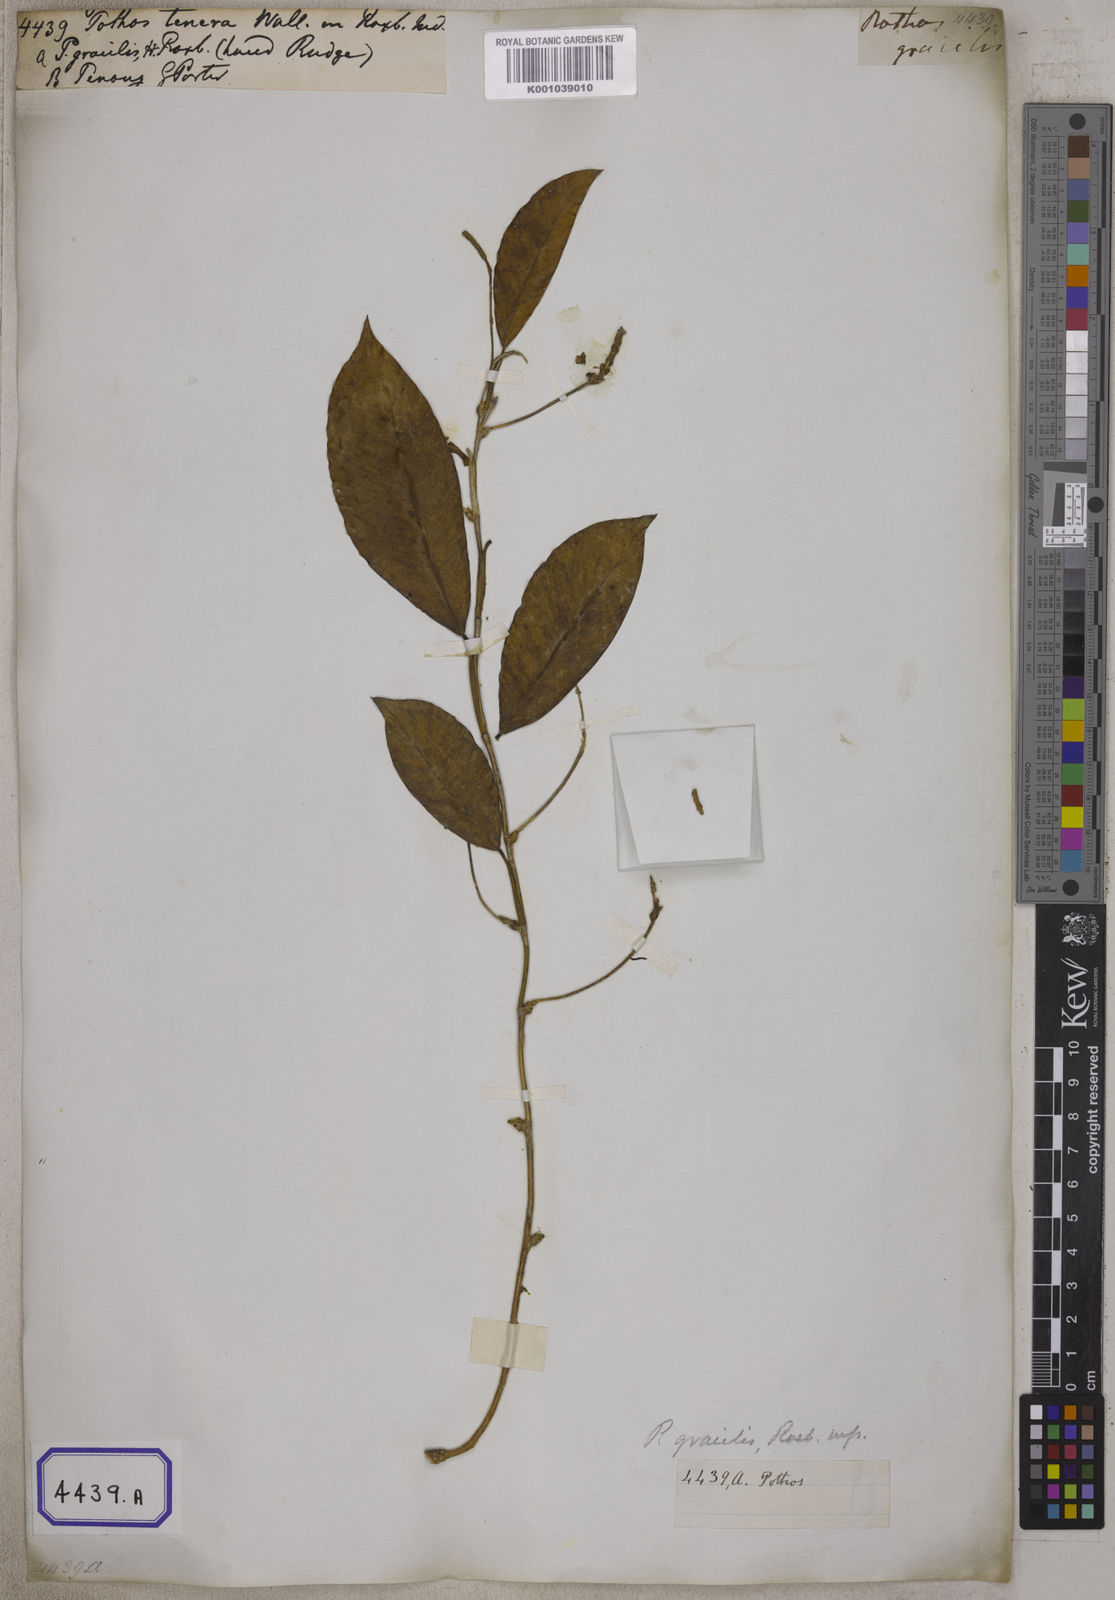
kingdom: Plantae
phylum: Tracheophyta
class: Liliopsida
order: Alismatales
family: Araceae
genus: Pothos
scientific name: Pothos tener
